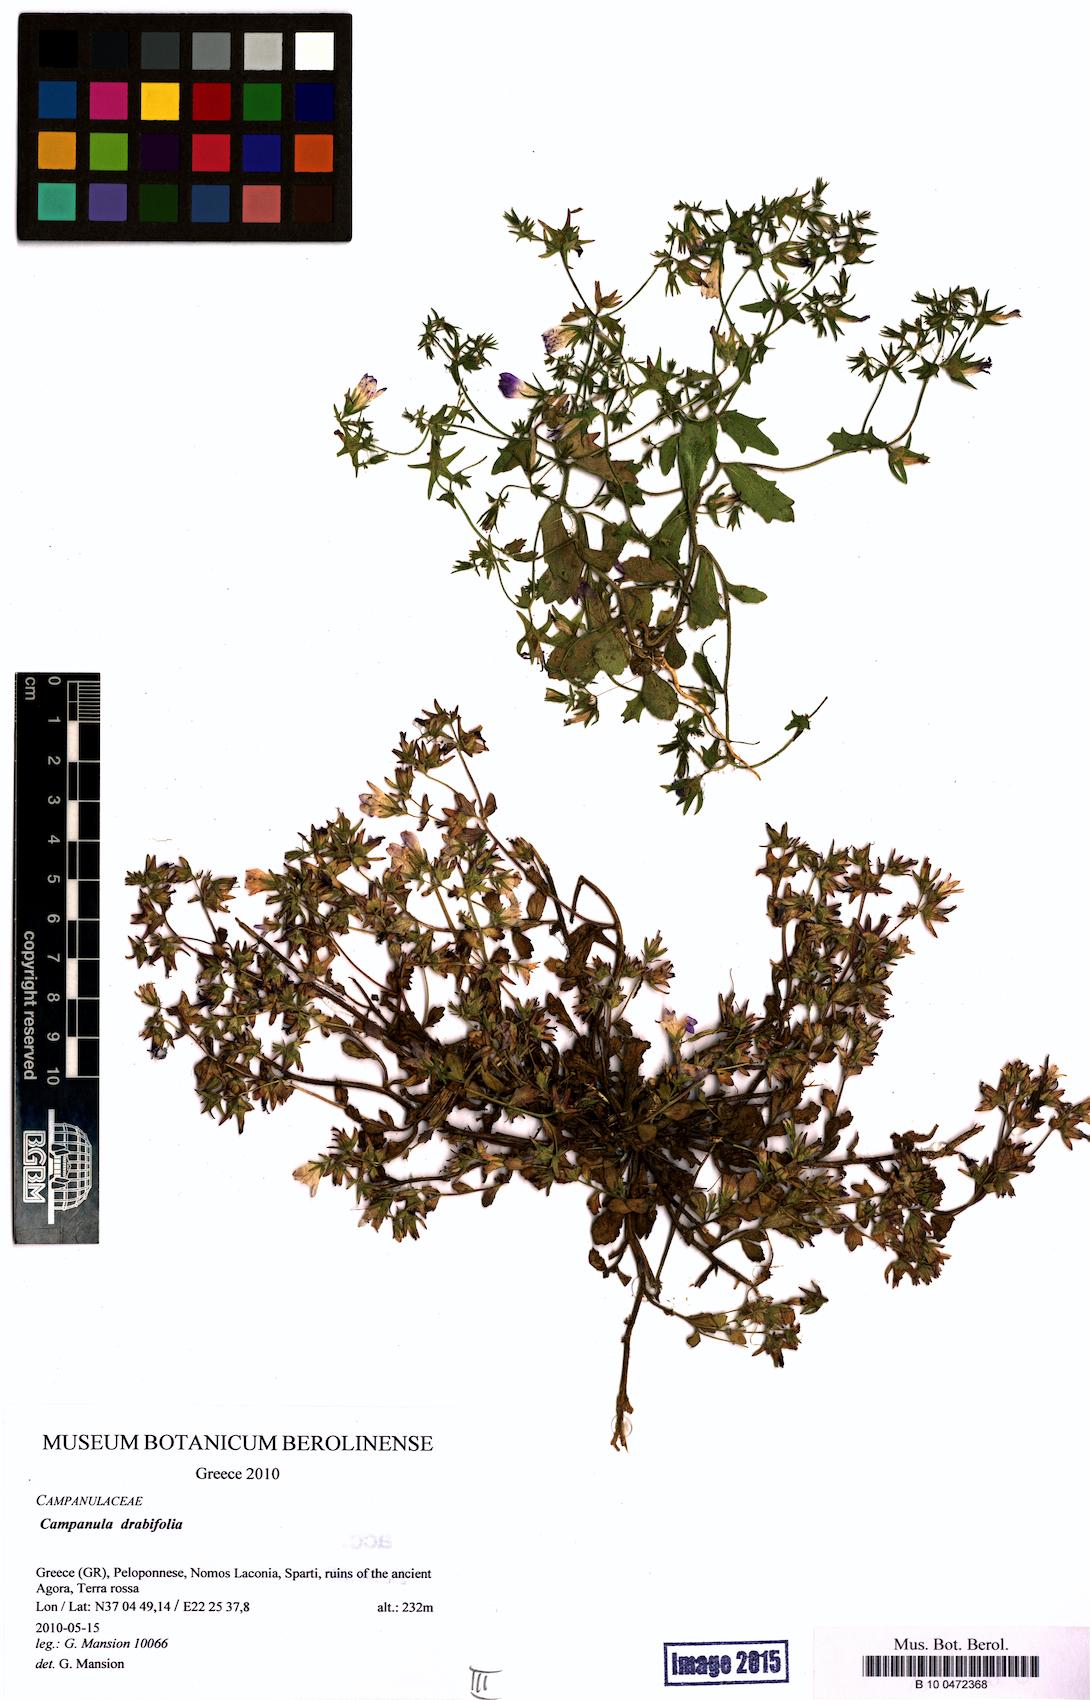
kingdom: Plantae
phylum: Tracheophyta
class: Magnoliopsida
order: Asterales
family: Campanulaceae
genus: Campanula
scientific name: Campanula drabifolia
